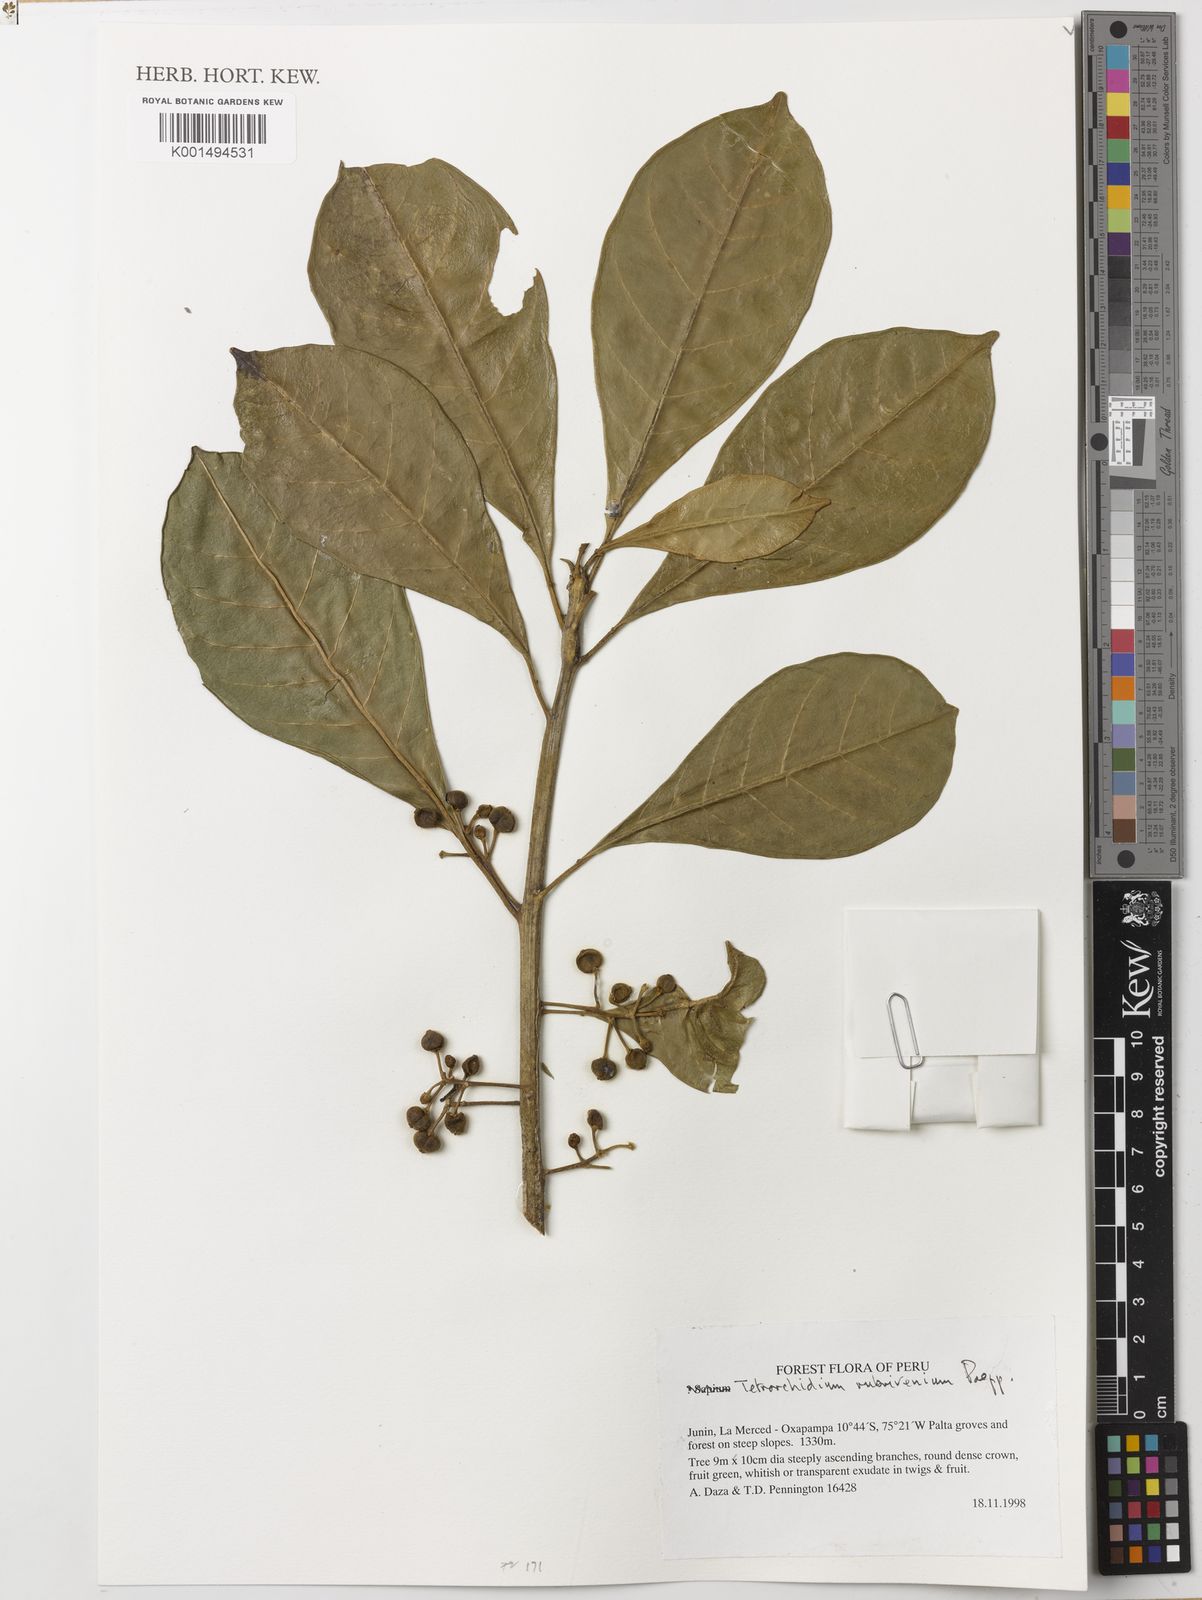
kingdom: Plantae
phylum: Tracheophyta
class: Magnoliopsida
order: Malpighiales
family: Euphorbiaceae
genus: Tetrorchidium
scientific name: Tetrorchidium rubrivenium
